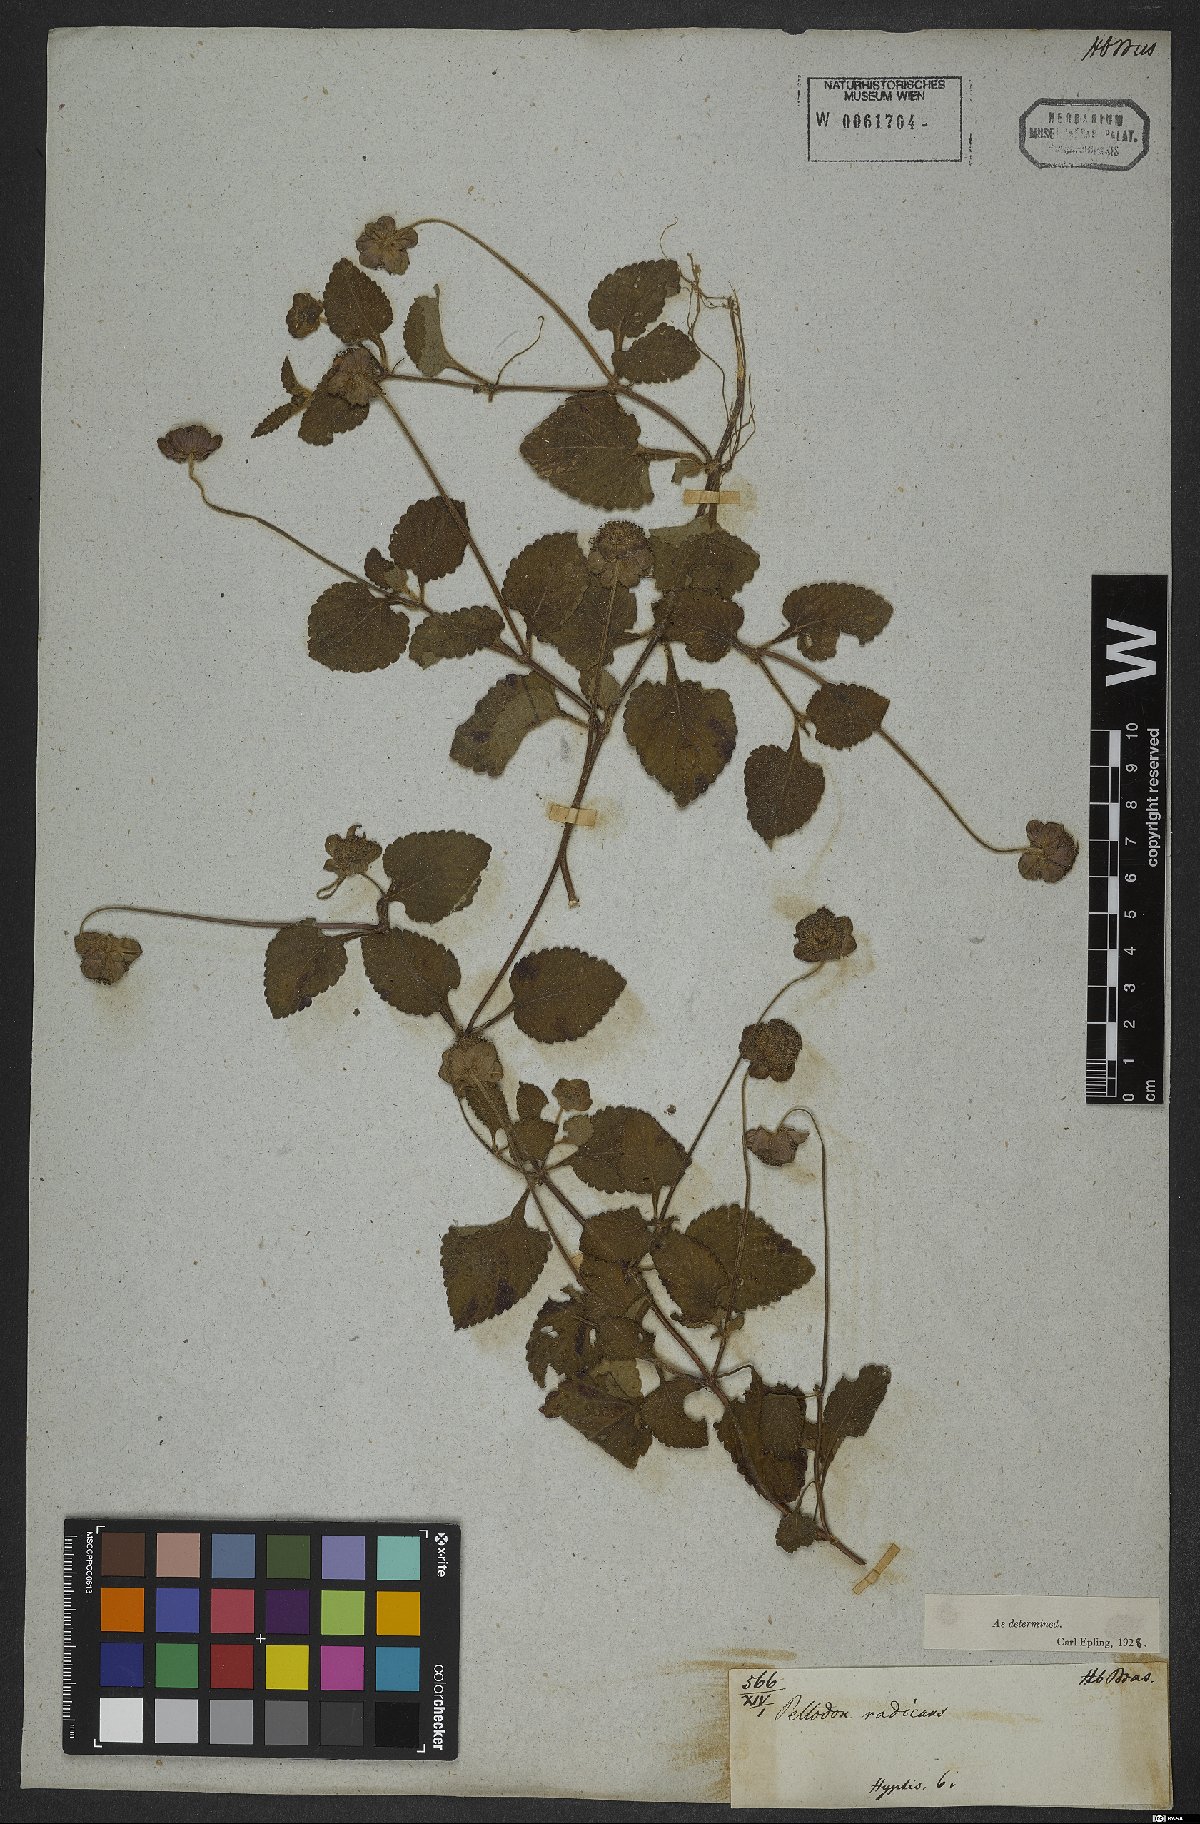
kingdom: Plantae
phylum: Tracheophyta
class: Magnoliopsida
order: Lamiales
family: Lamiaceae
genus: Hyptis
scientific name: Hyptis radicans
